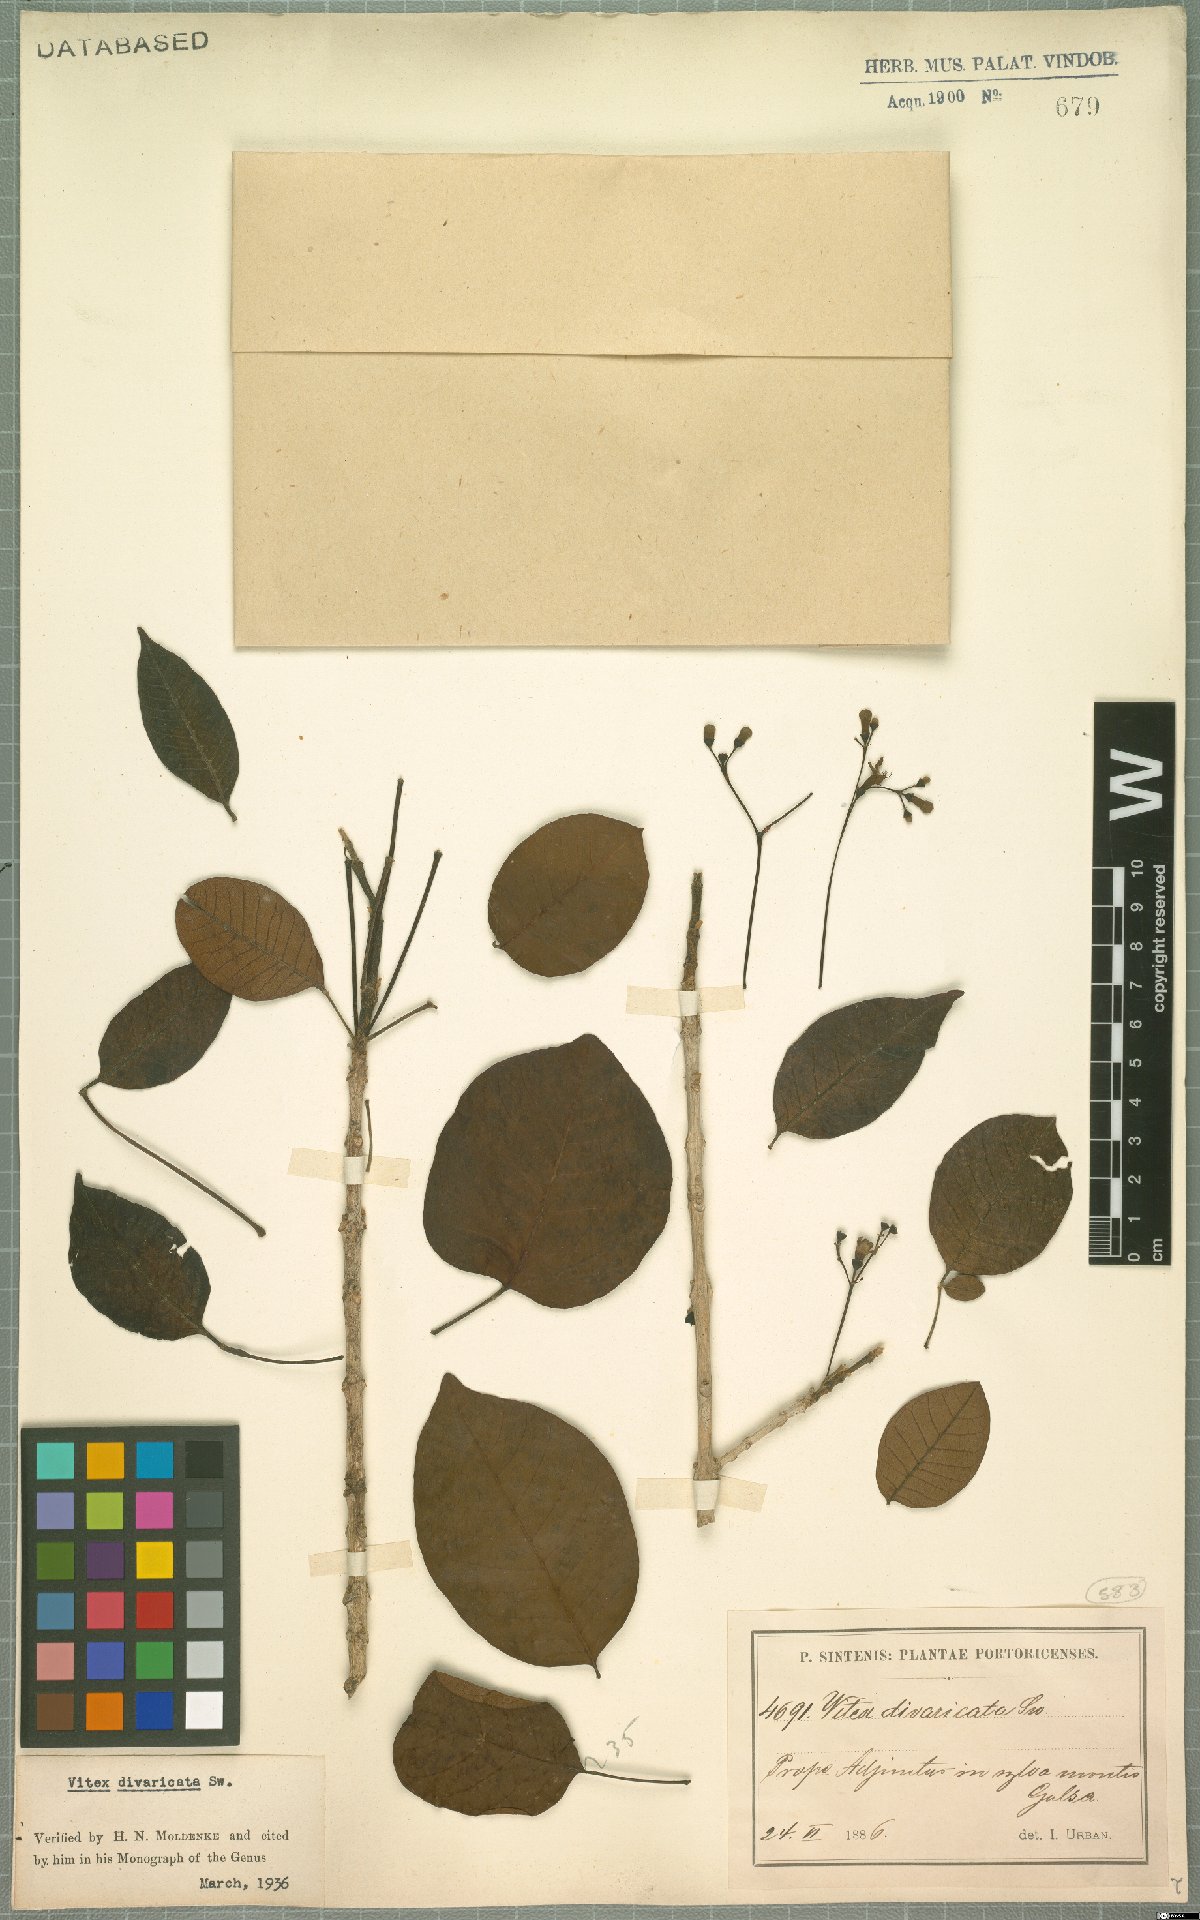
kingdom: Plantae
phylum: Tracheophyta
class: Magnoliopsida
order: Lamiales
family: Lamiaceae
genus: Vitex
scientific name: Vitex divaricata
